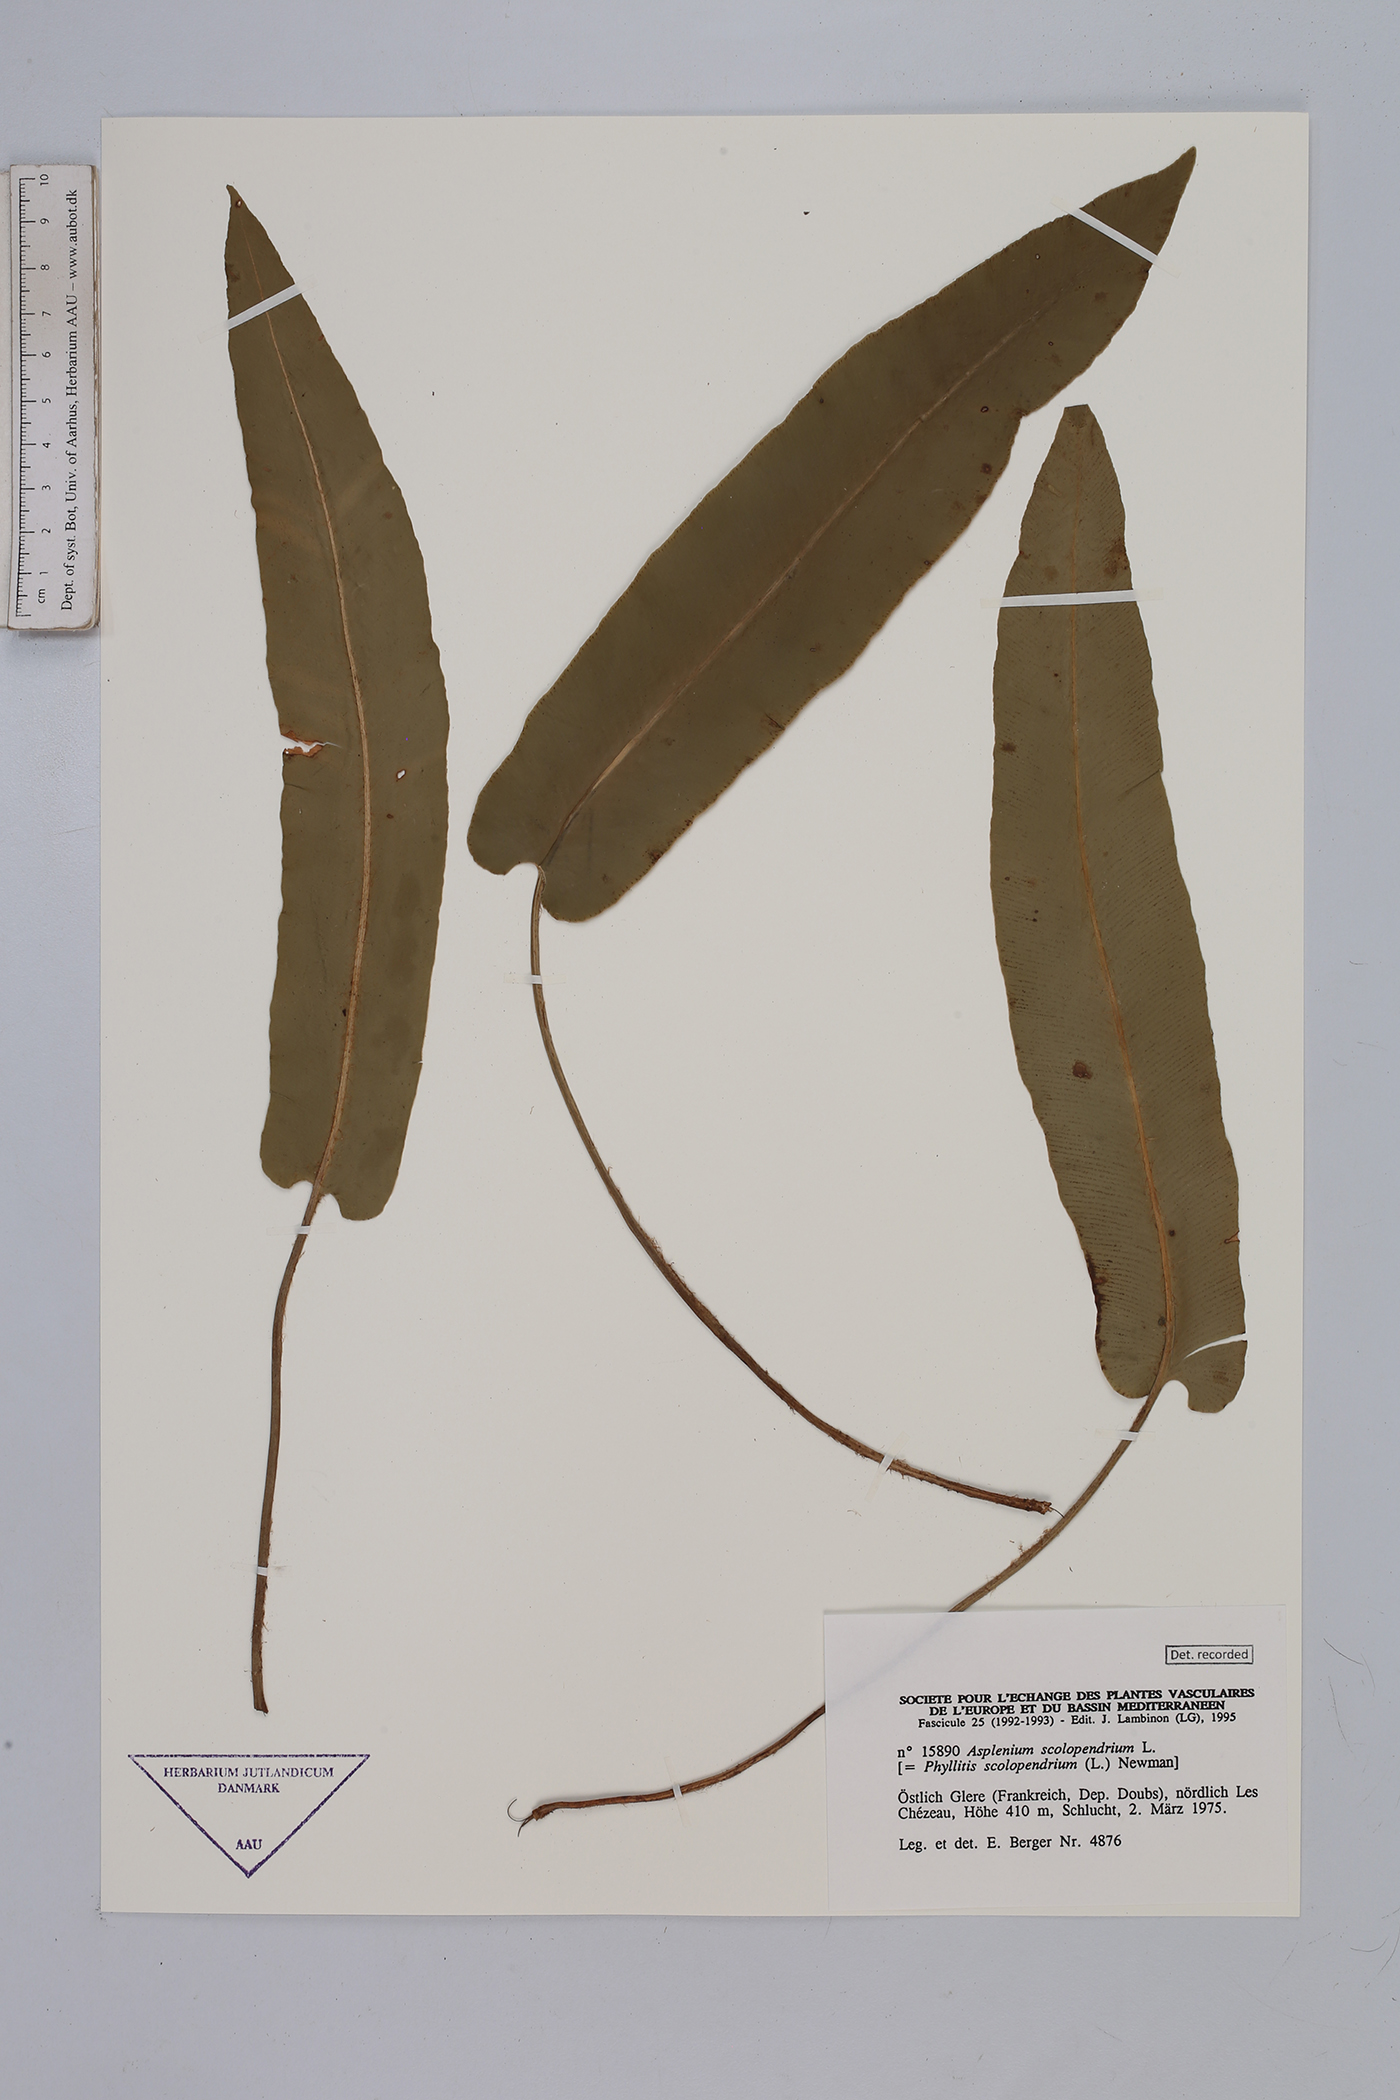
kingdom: Plantae
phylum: Tracheophyta
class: Polypodiopsida
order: Polypodiales
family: Aspleniaceae
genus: Asplenium
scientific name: Asplenium scolopendrium
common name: Hart's-tongue fern
